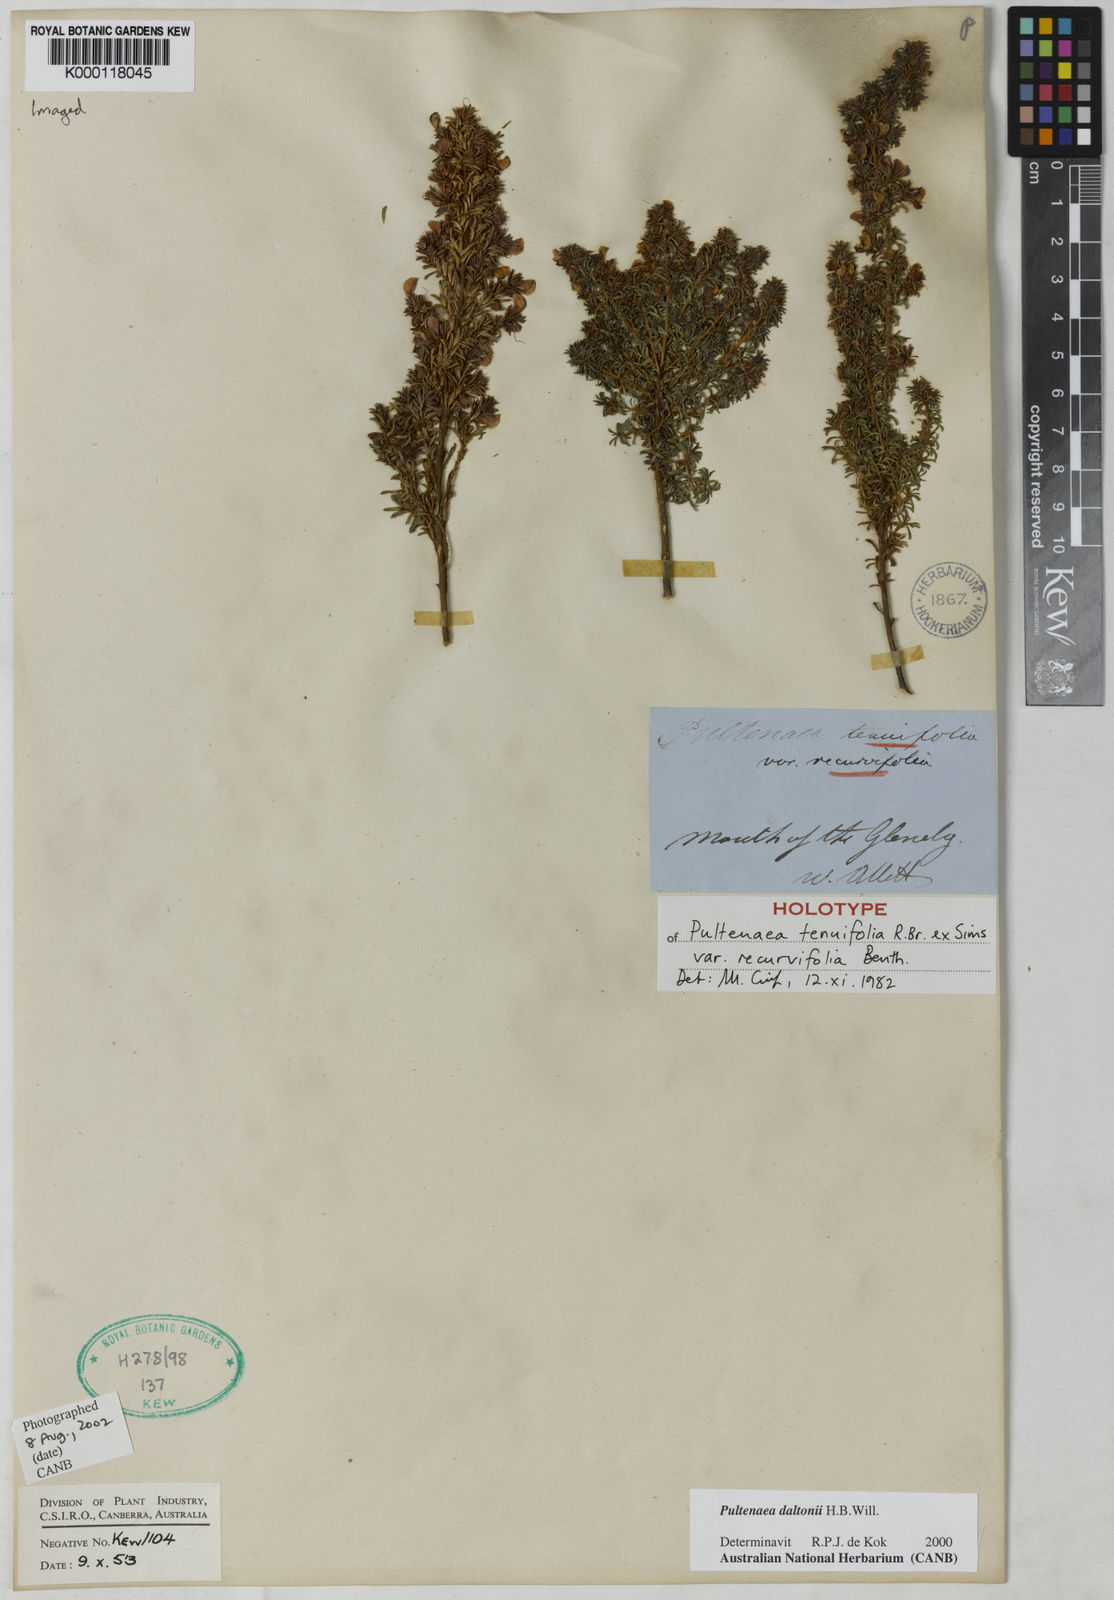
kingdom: Plantae
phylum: Tracheophyta
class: Magnoliopsida
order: Fabales
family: Fabaceae
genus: Pultenaea
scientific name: Pultenaea daltonii
